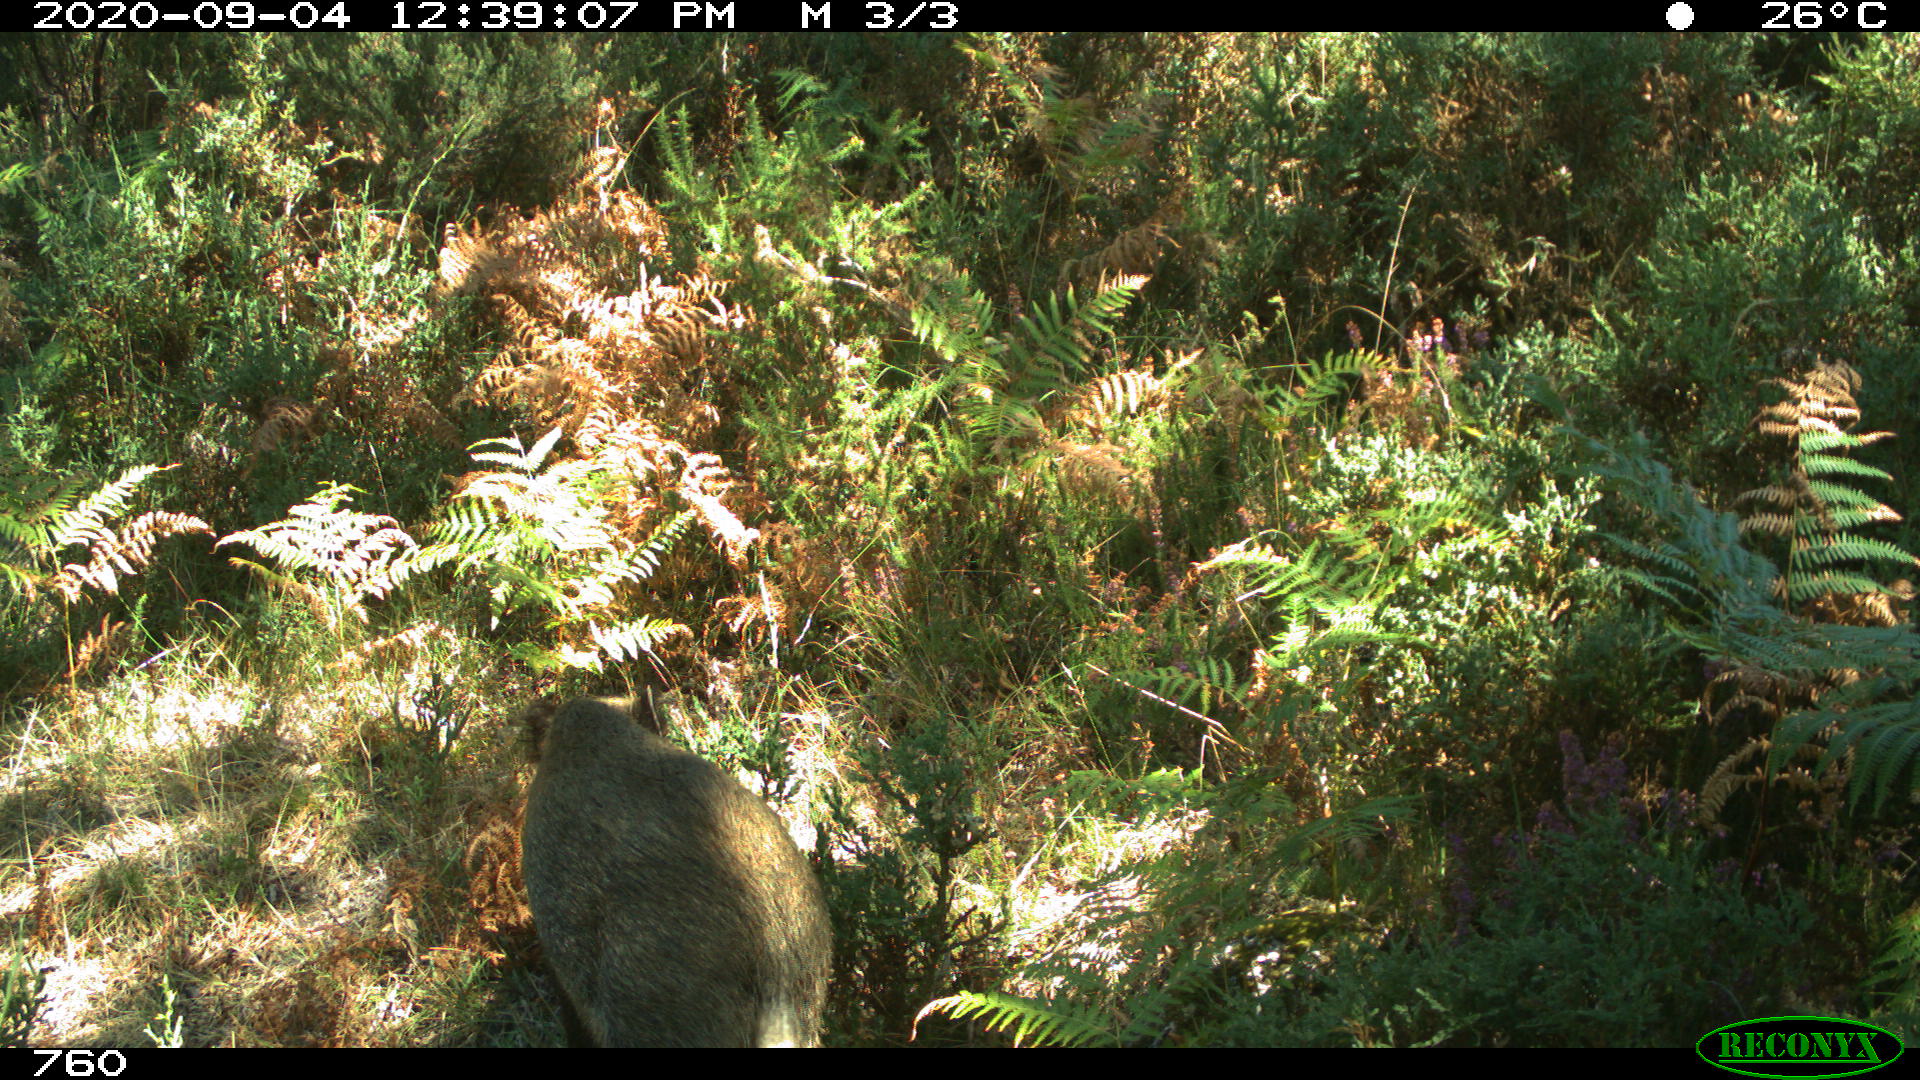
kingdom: Animalia
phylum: Chordata
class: Mammalia
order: Artiodactyla
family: Suidae
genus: Sus
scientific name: Sus scrofa
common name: Wild boar
